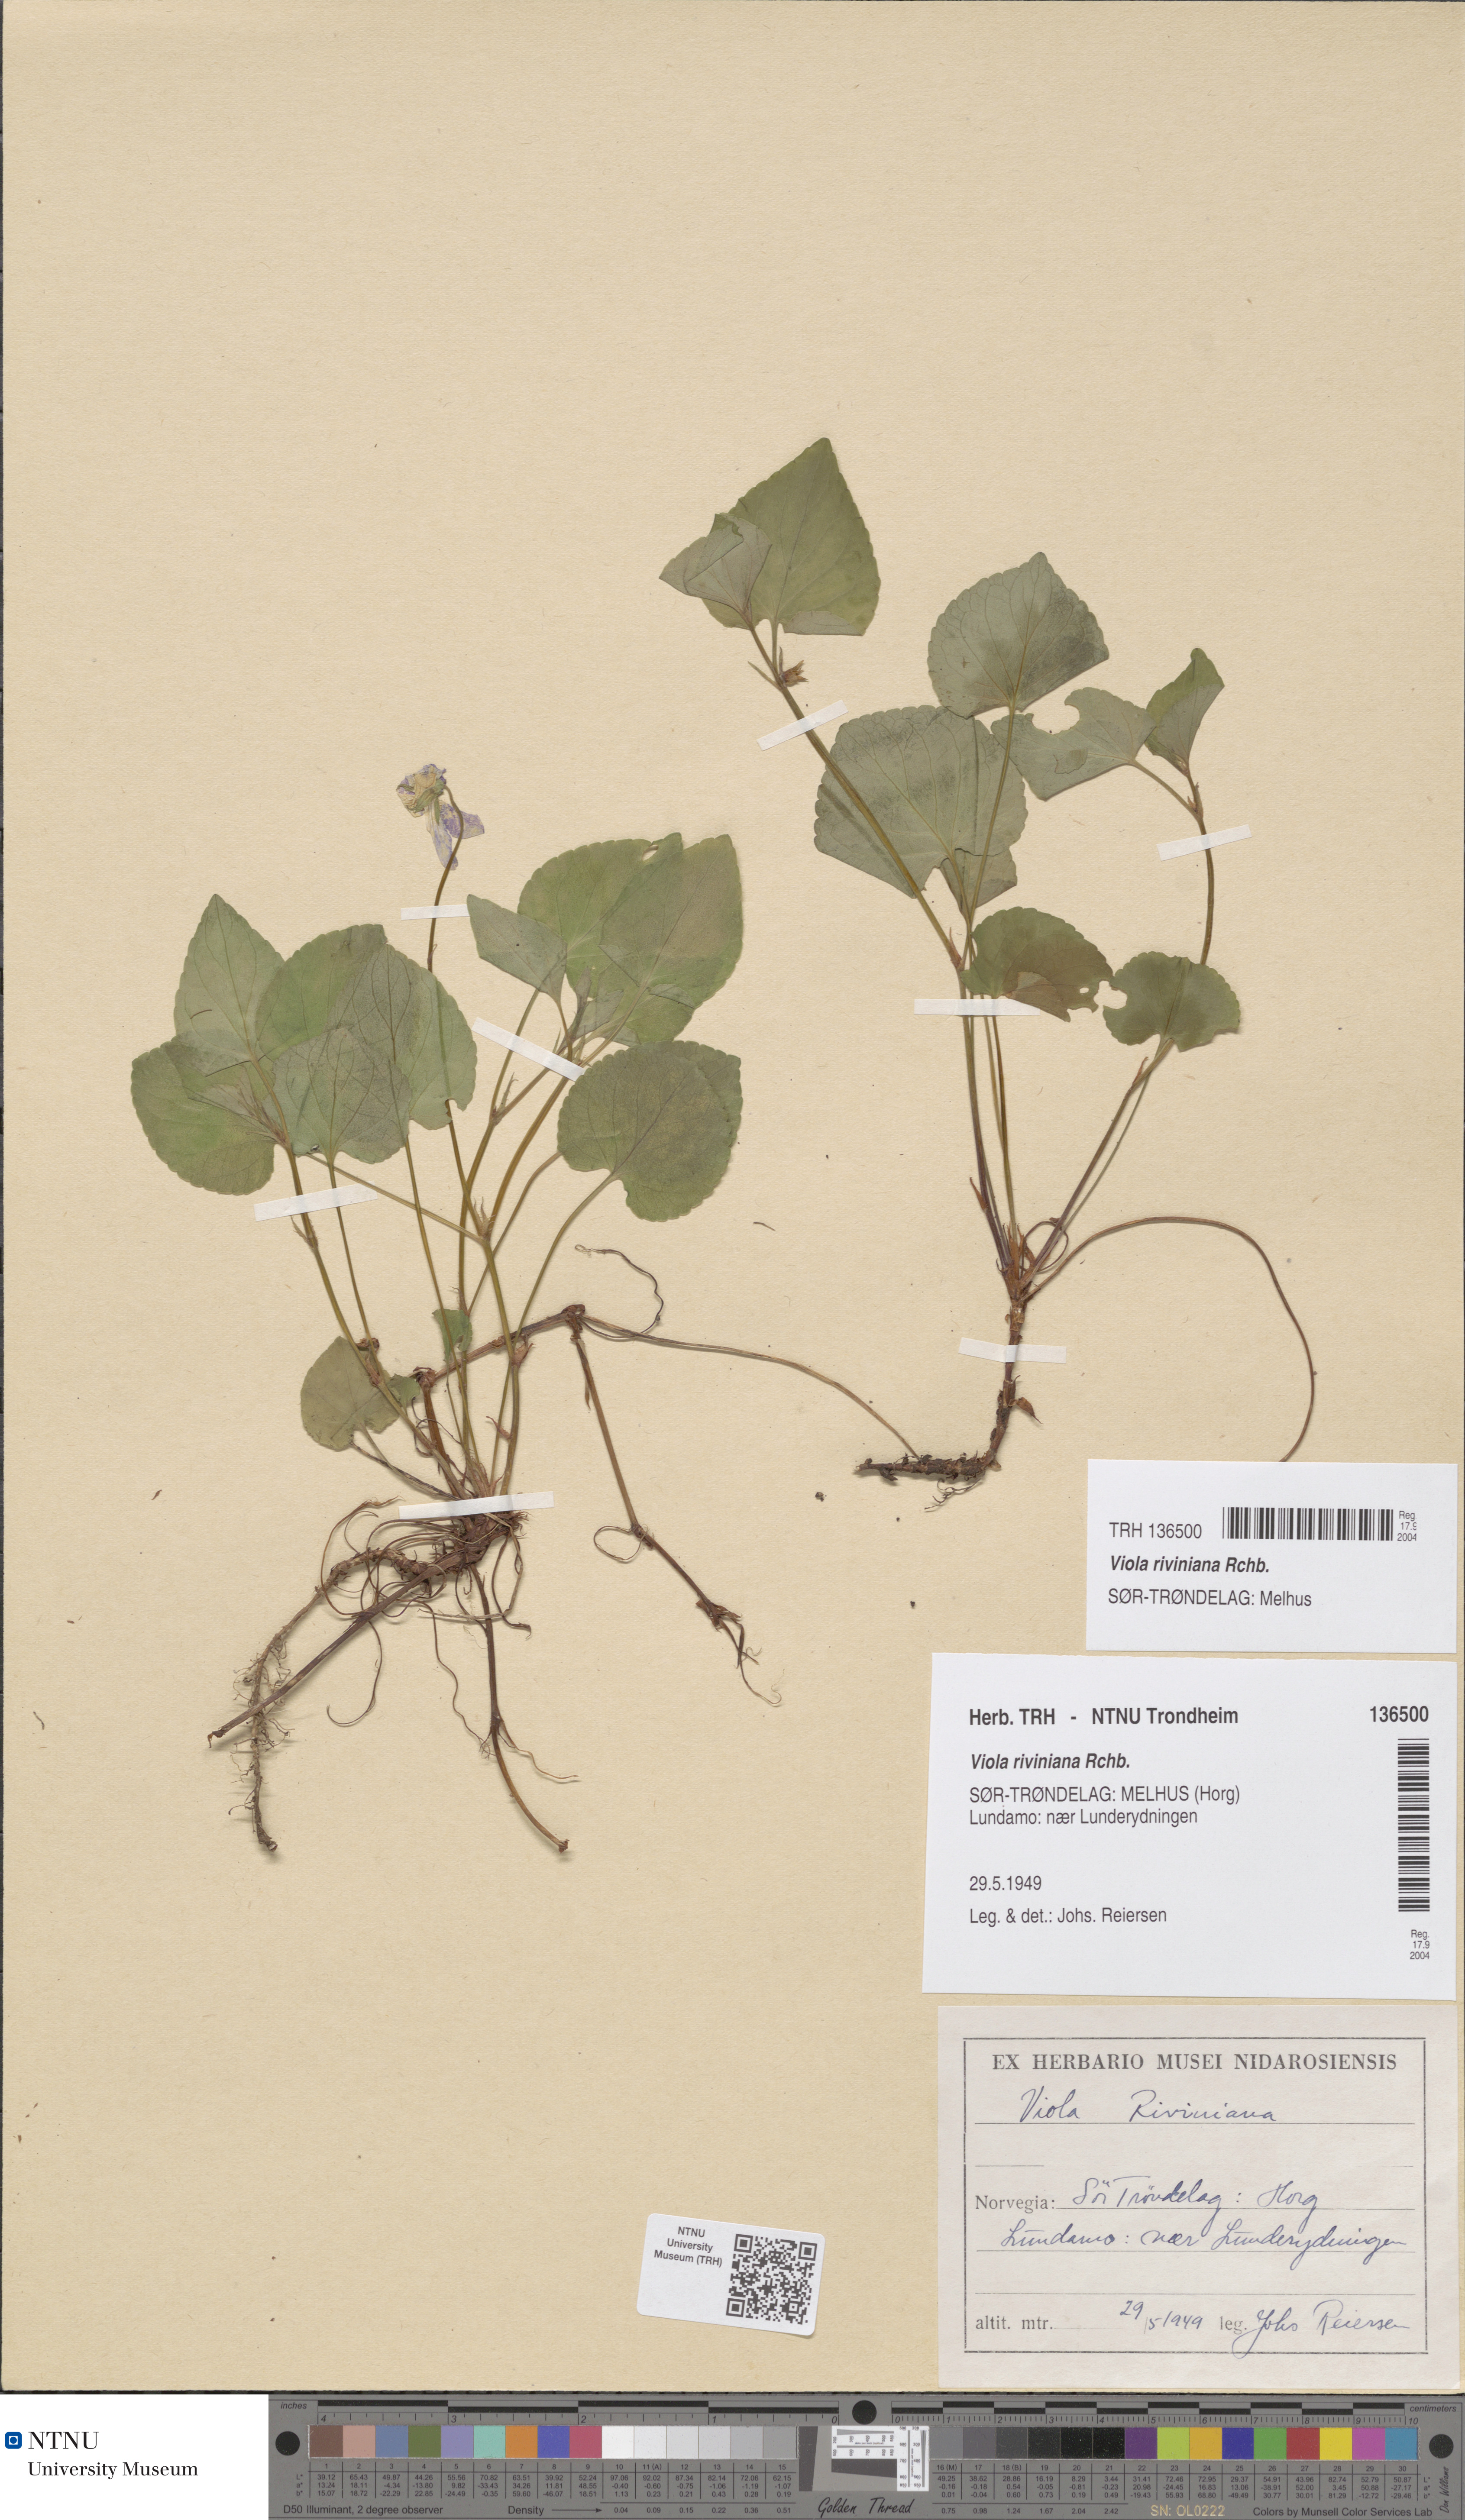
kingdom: Plantae
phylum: Tracheophyta
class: Magnoliopsida
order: Malpighiales
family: Violaceae
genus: Viola
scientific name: Viola riviniana
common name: Common dog-violet
